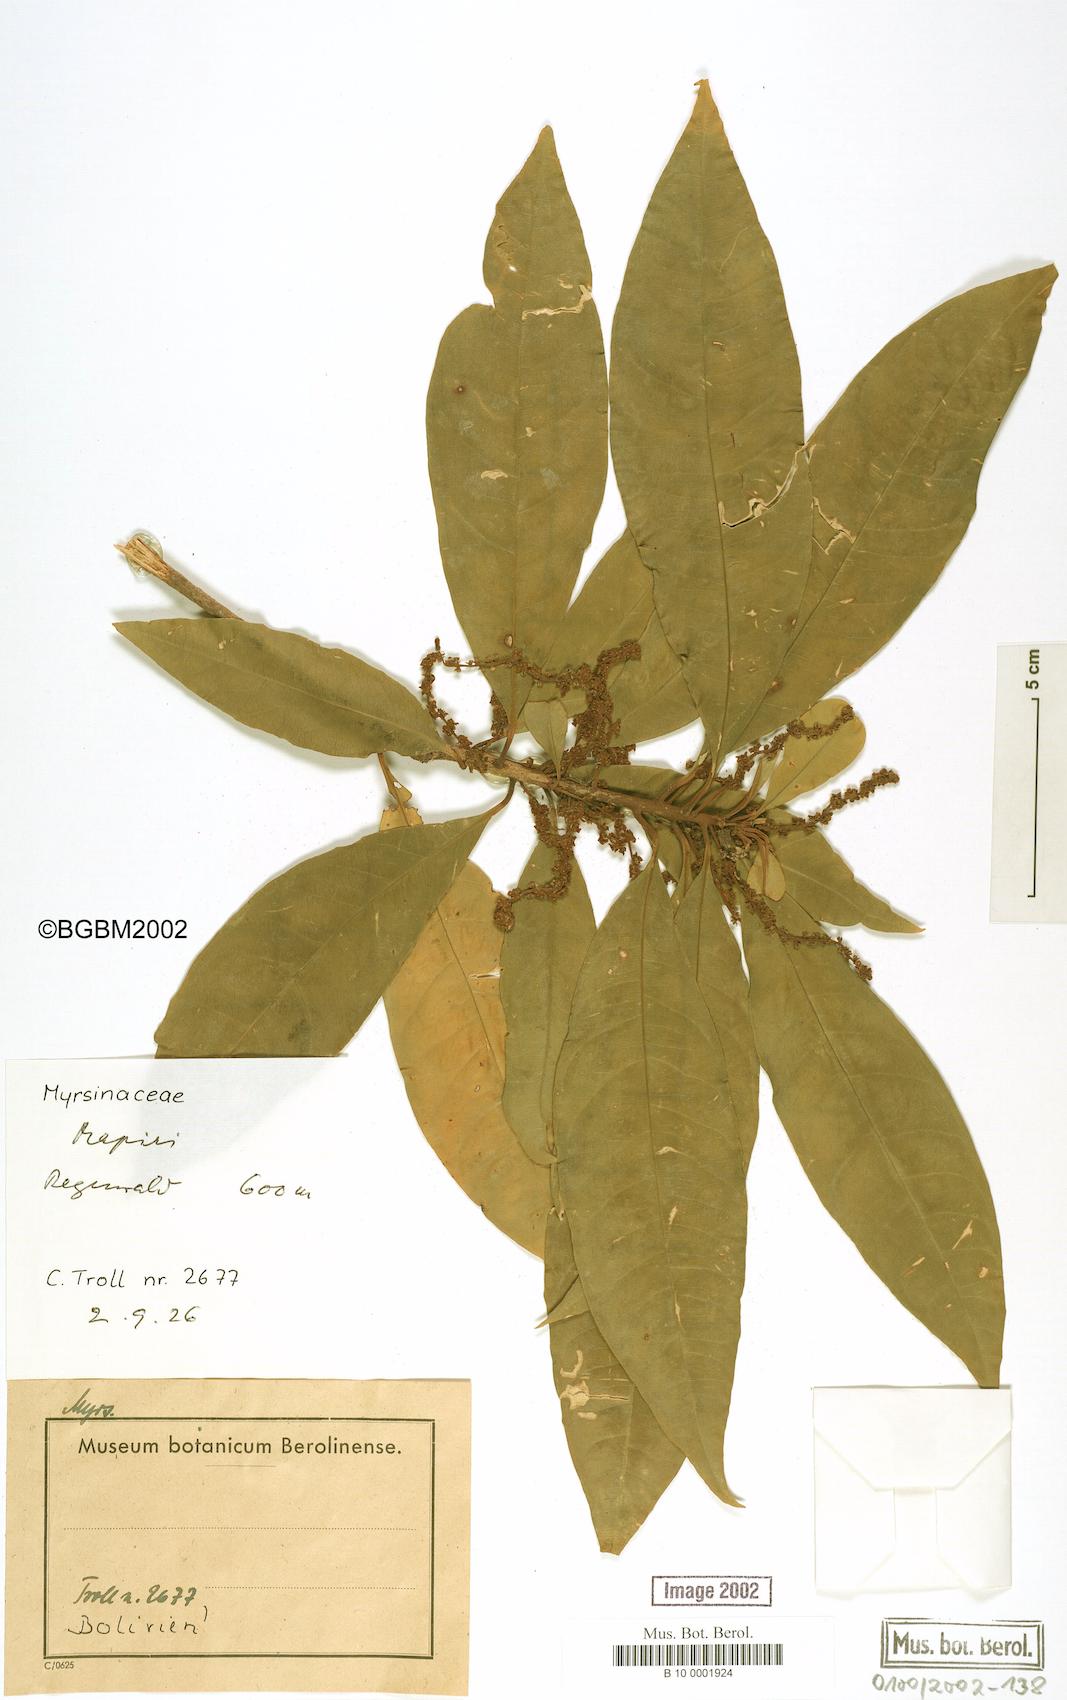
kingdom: Plantae
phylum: Tracheophyta
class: Magnoliopsida
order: Ericales
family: Primulaceae
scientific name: Primulaceae
